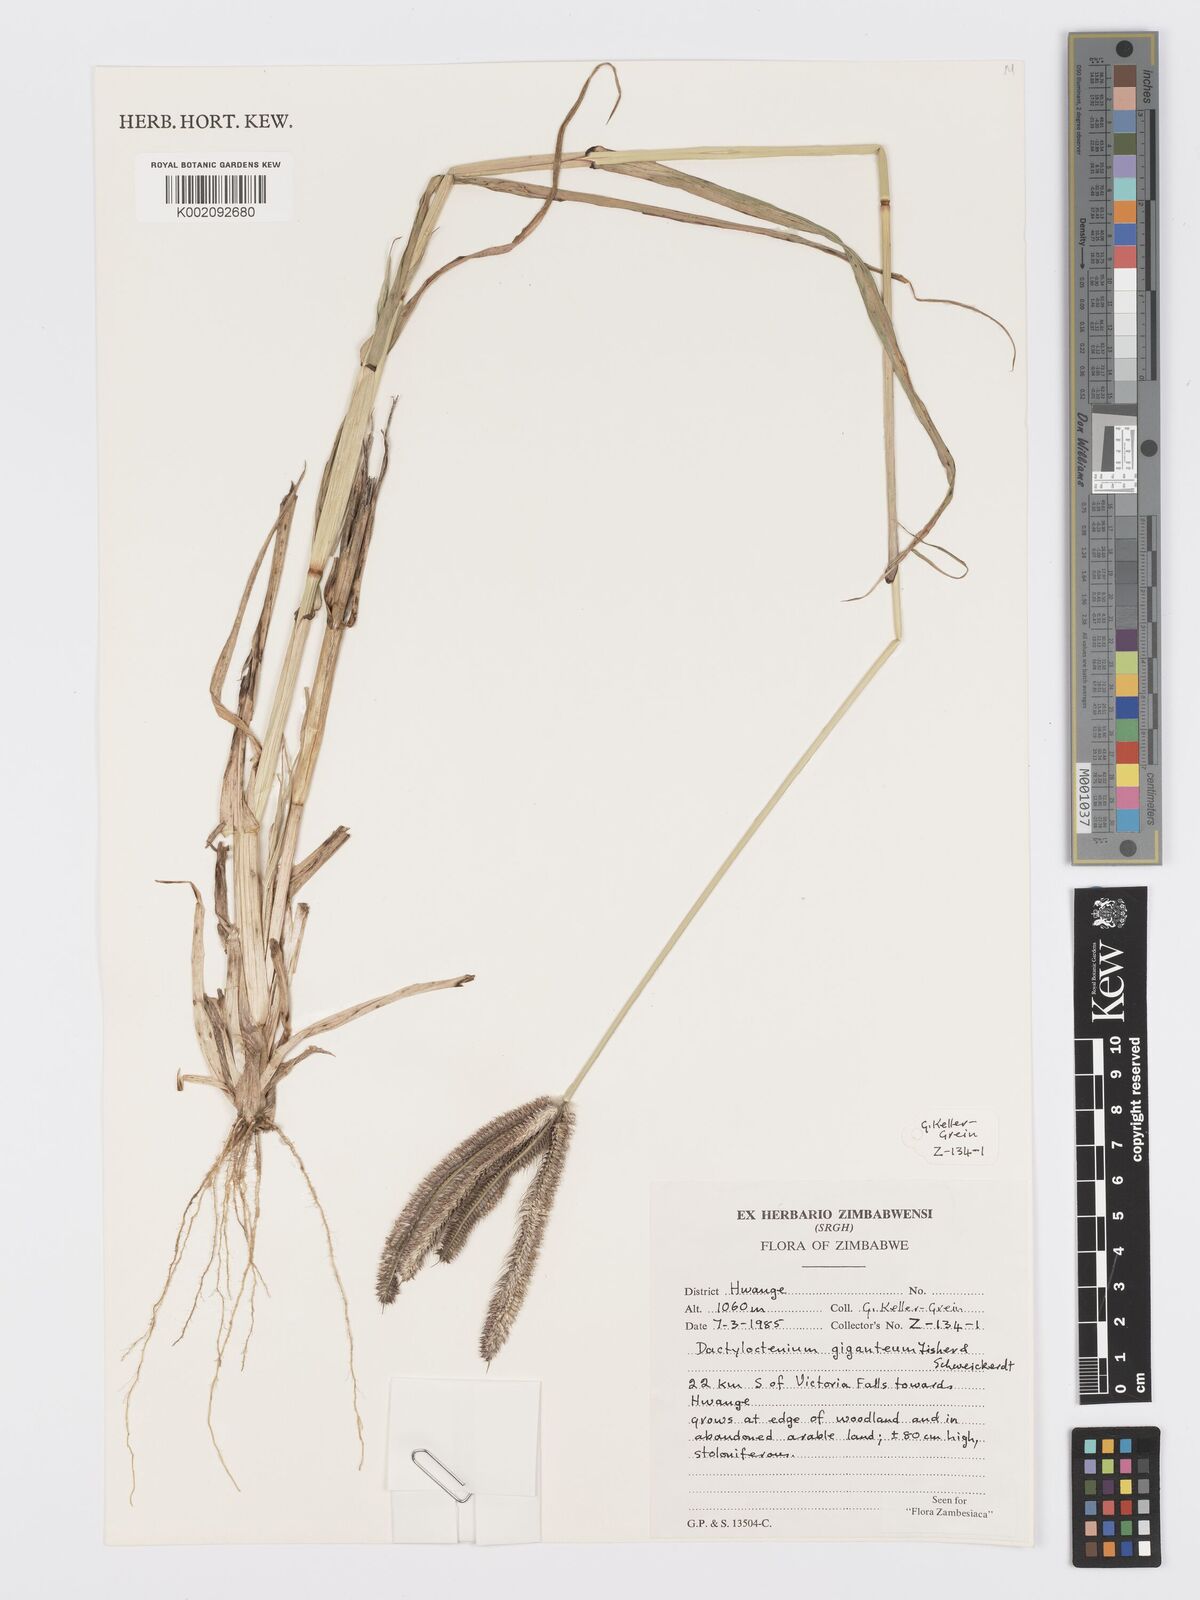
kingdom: Plantae
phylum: Tracheophyta
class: Liliopsida
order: Poales
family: Poaceae
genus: Dactyloctenium
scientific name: Dactyloctenium giganteum
